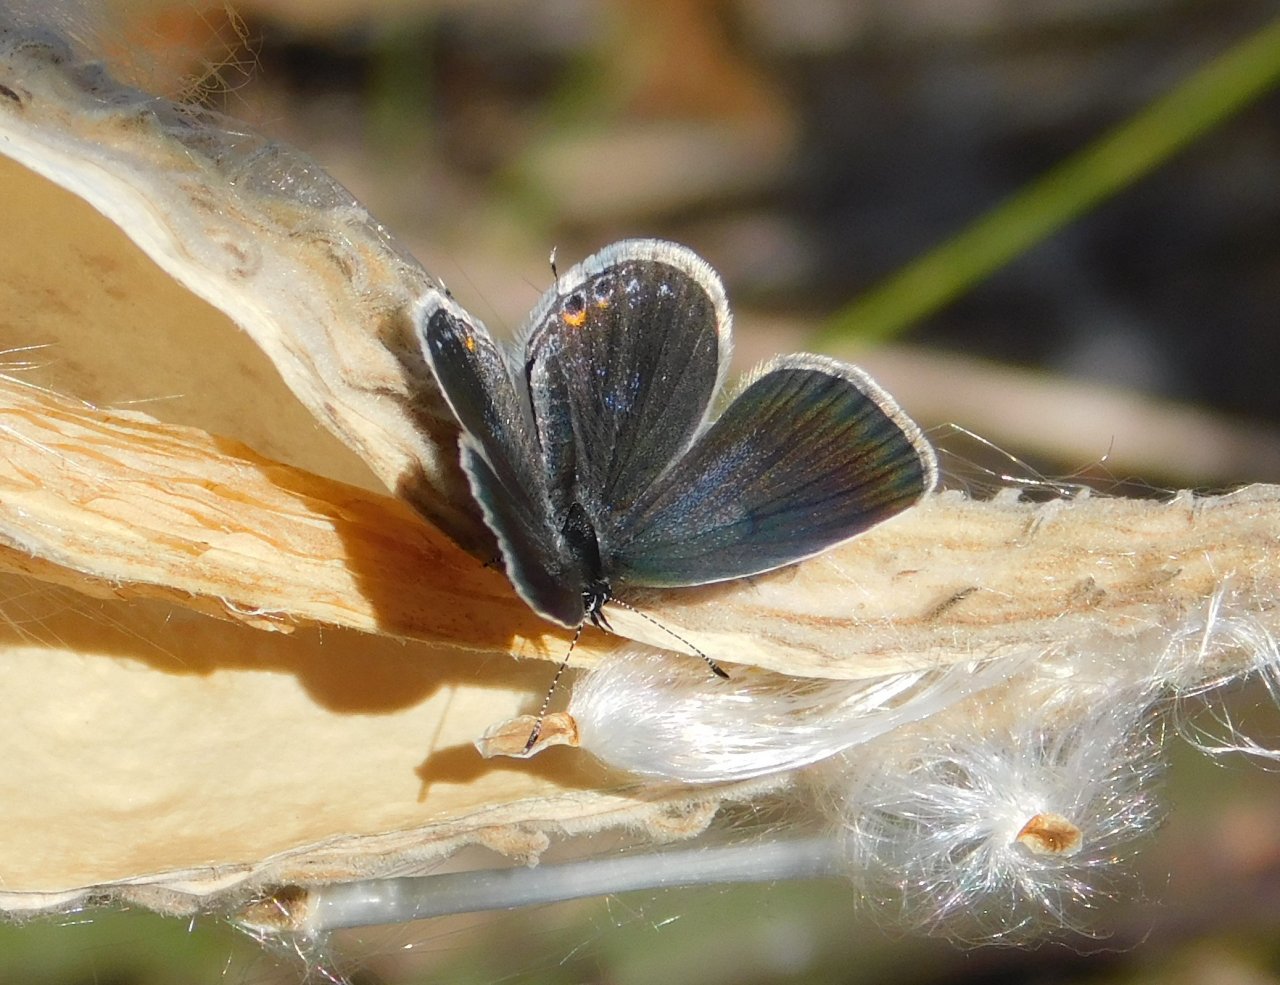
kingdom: Animalia
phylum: Arthropoda
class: Insecta
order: Lepidoptera
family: Lycaenidae
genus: Elkalyce
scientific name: Elkalyce comyntas
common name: Eastern Tailed-Blue
